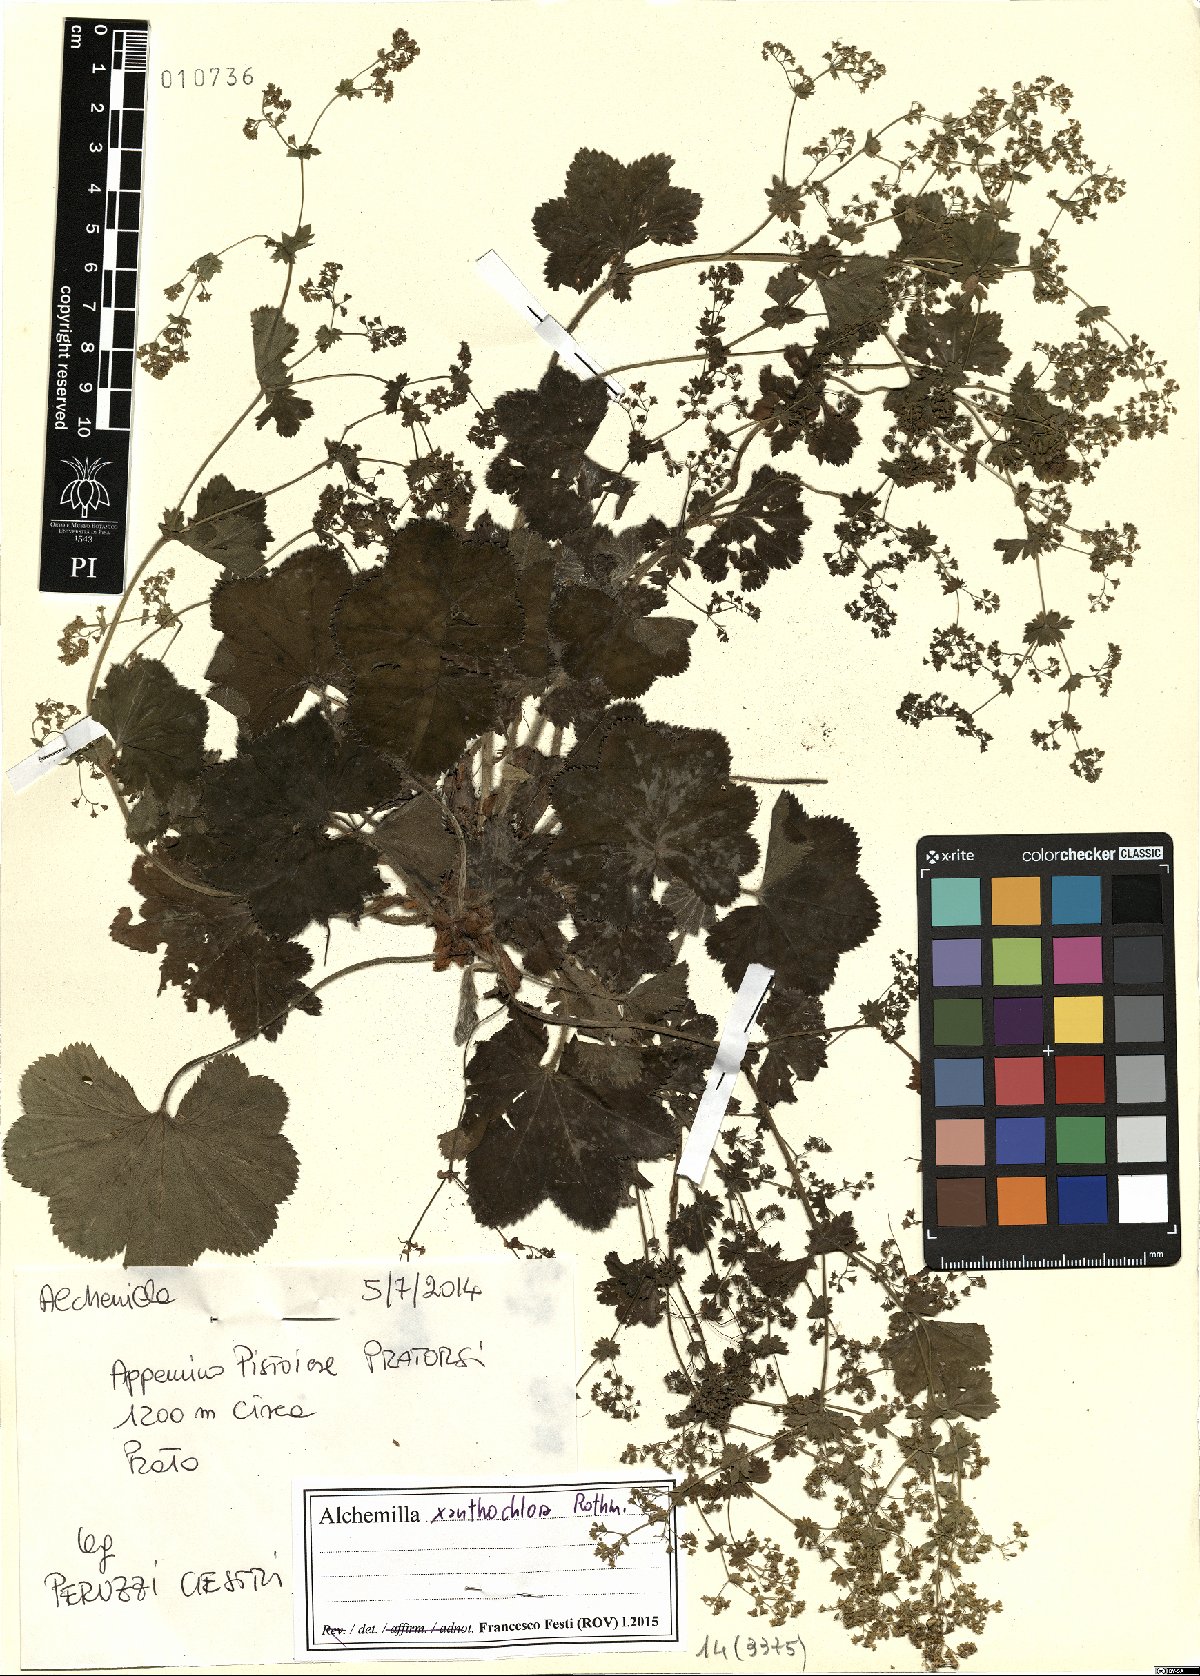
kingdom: Plantae
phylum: Tracheophyta
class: Magnoliopsida
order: Rosales
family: Rosaceae
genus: Alchemilla
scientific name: Alchemilla xanthochlora
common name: Intermediate lady's-mantle
